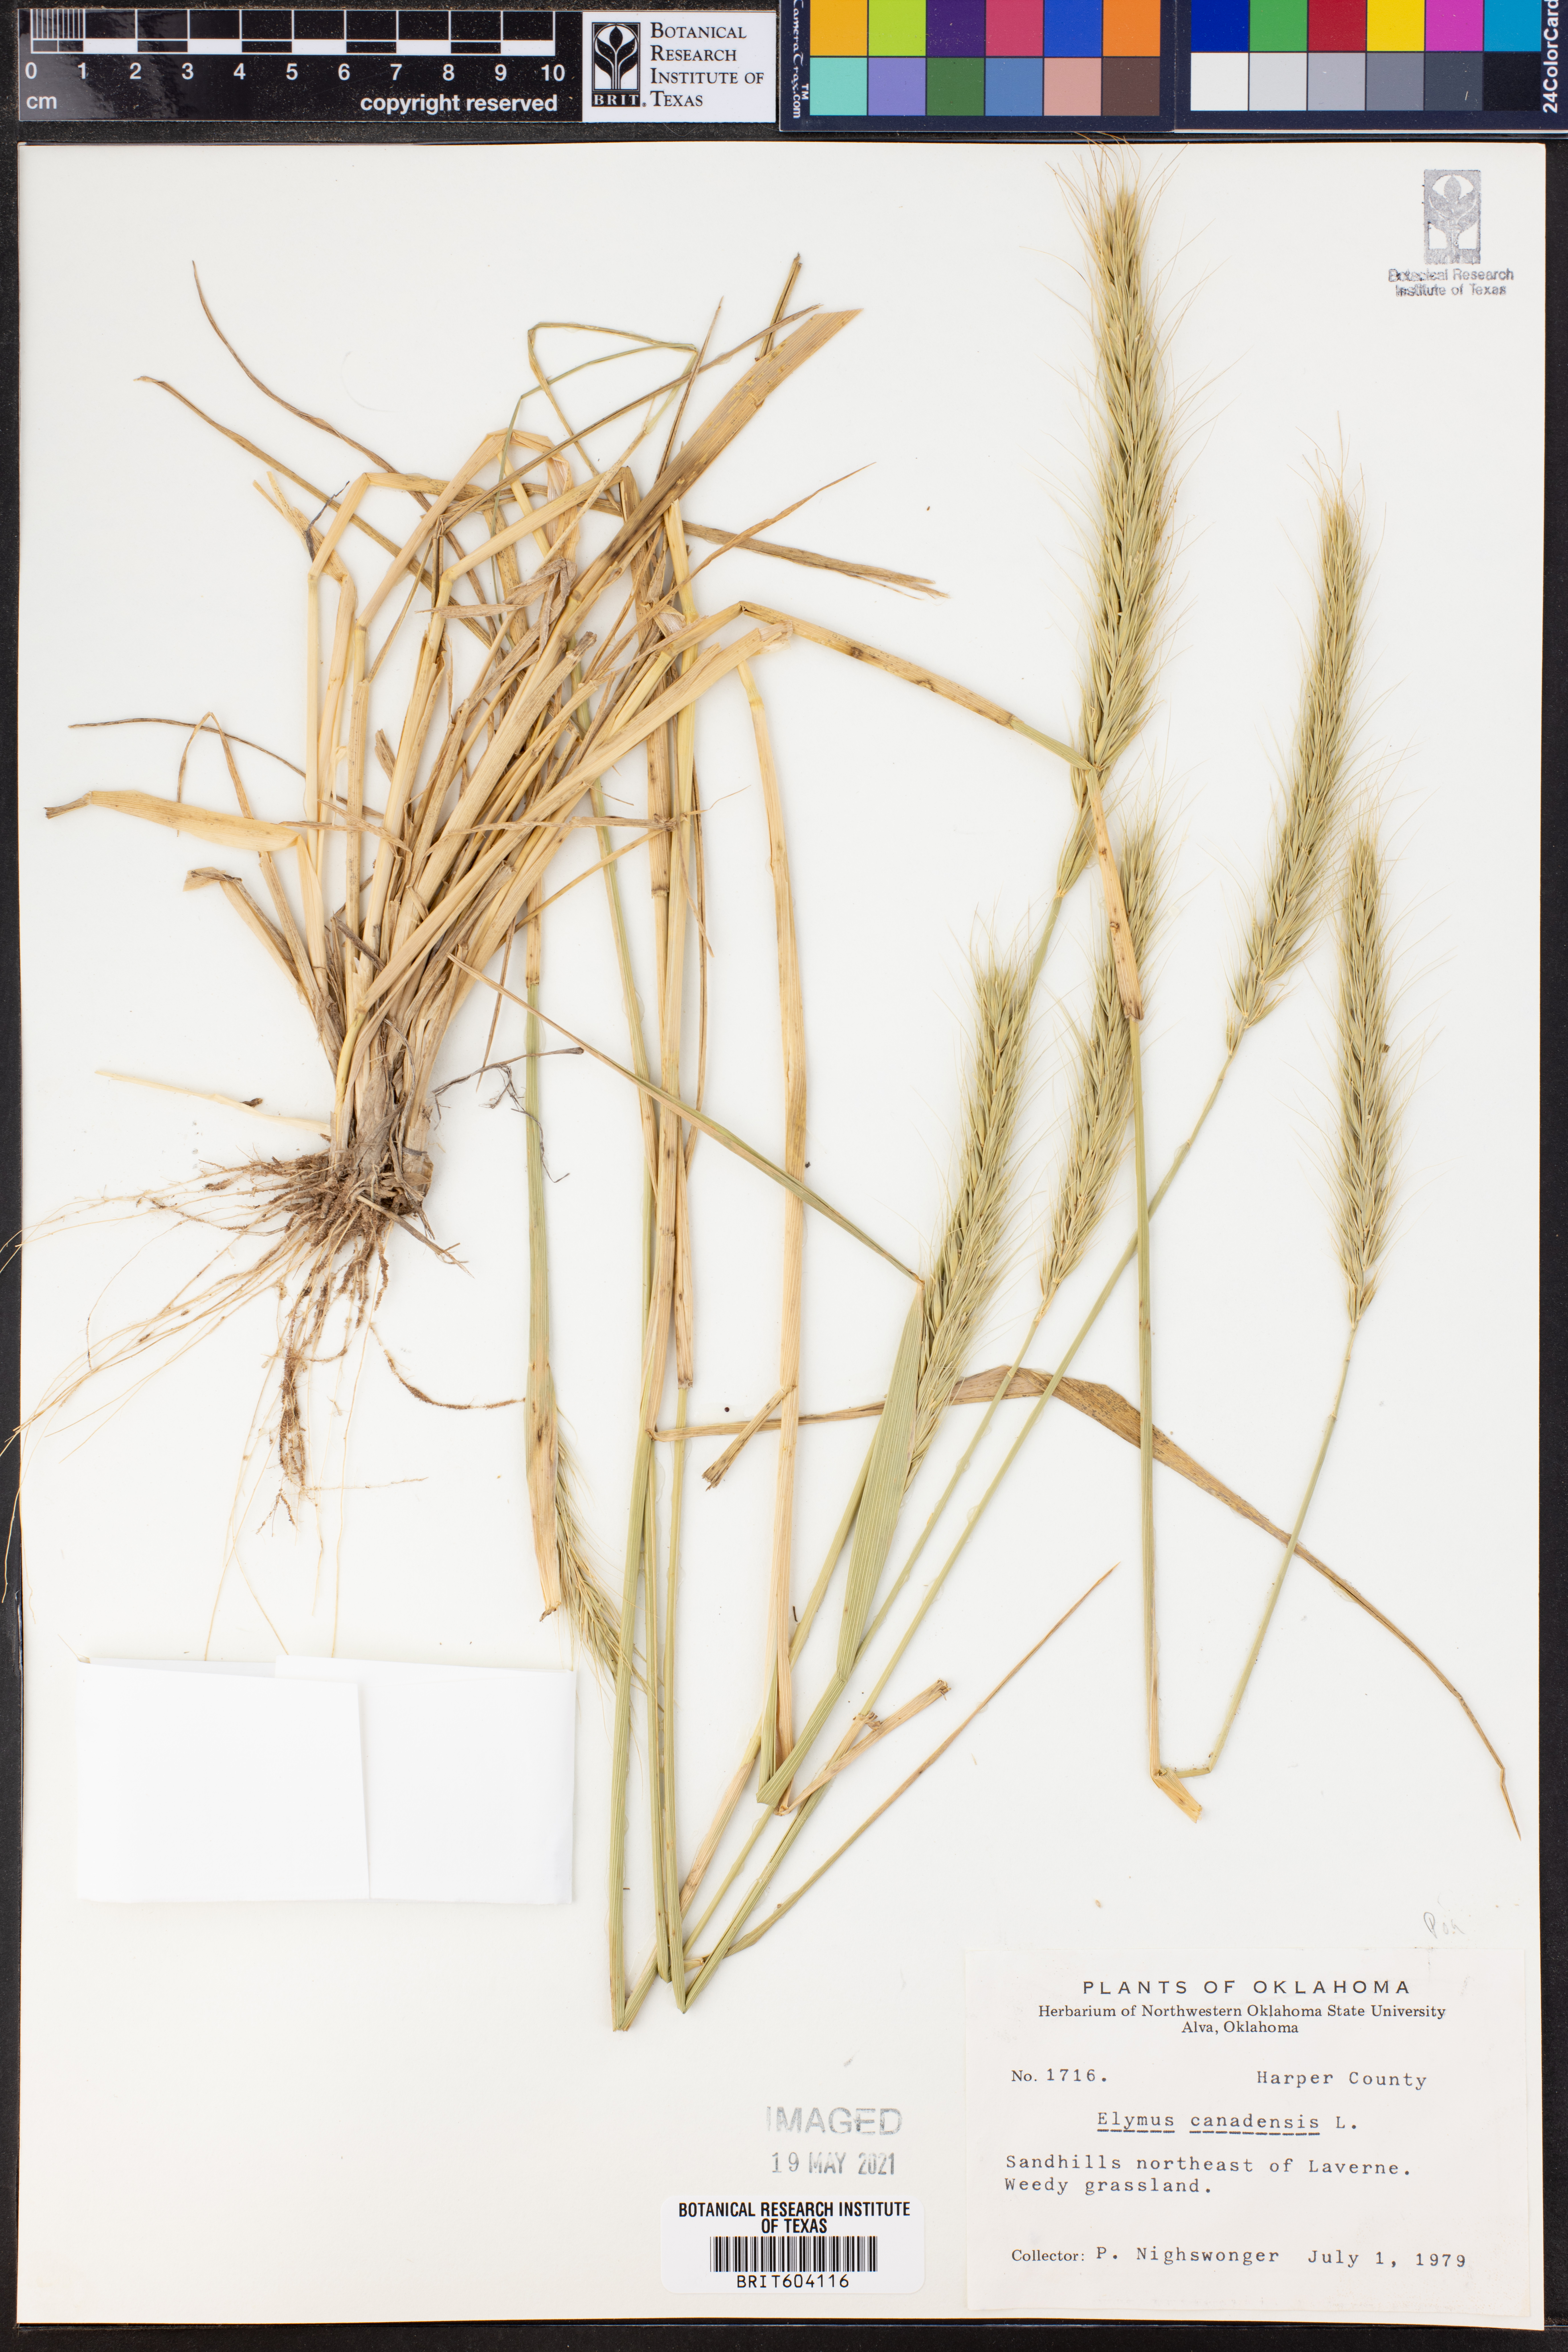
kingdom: Plantae
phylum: Tracheophyta
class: Liliopsida
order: Poales
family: Poaceae
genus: Elymus
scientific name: Elymus canadensis
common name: Canada wild rye
